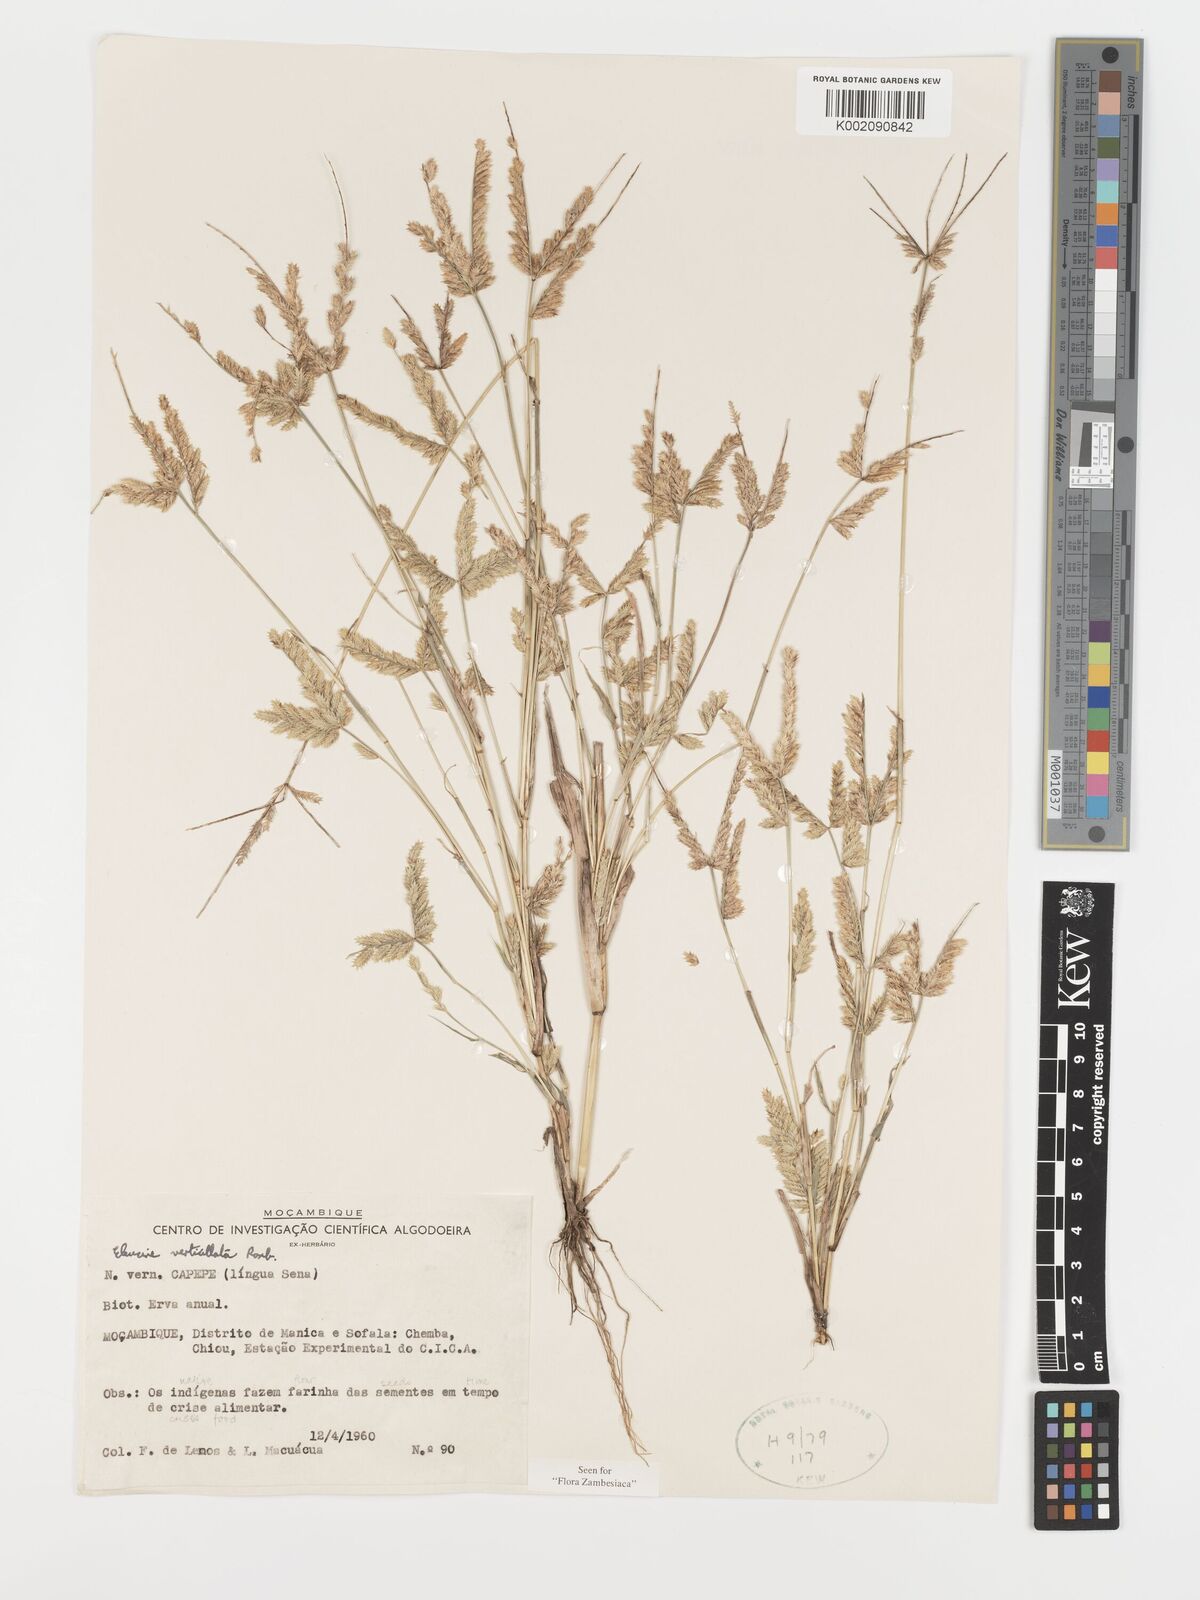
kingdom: Plantae
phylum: Tracheophyta
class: Liliopsida
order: Poales
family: Poaceae
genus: Acrachne
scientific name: Acrachne racemosa
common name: Goosegrass
